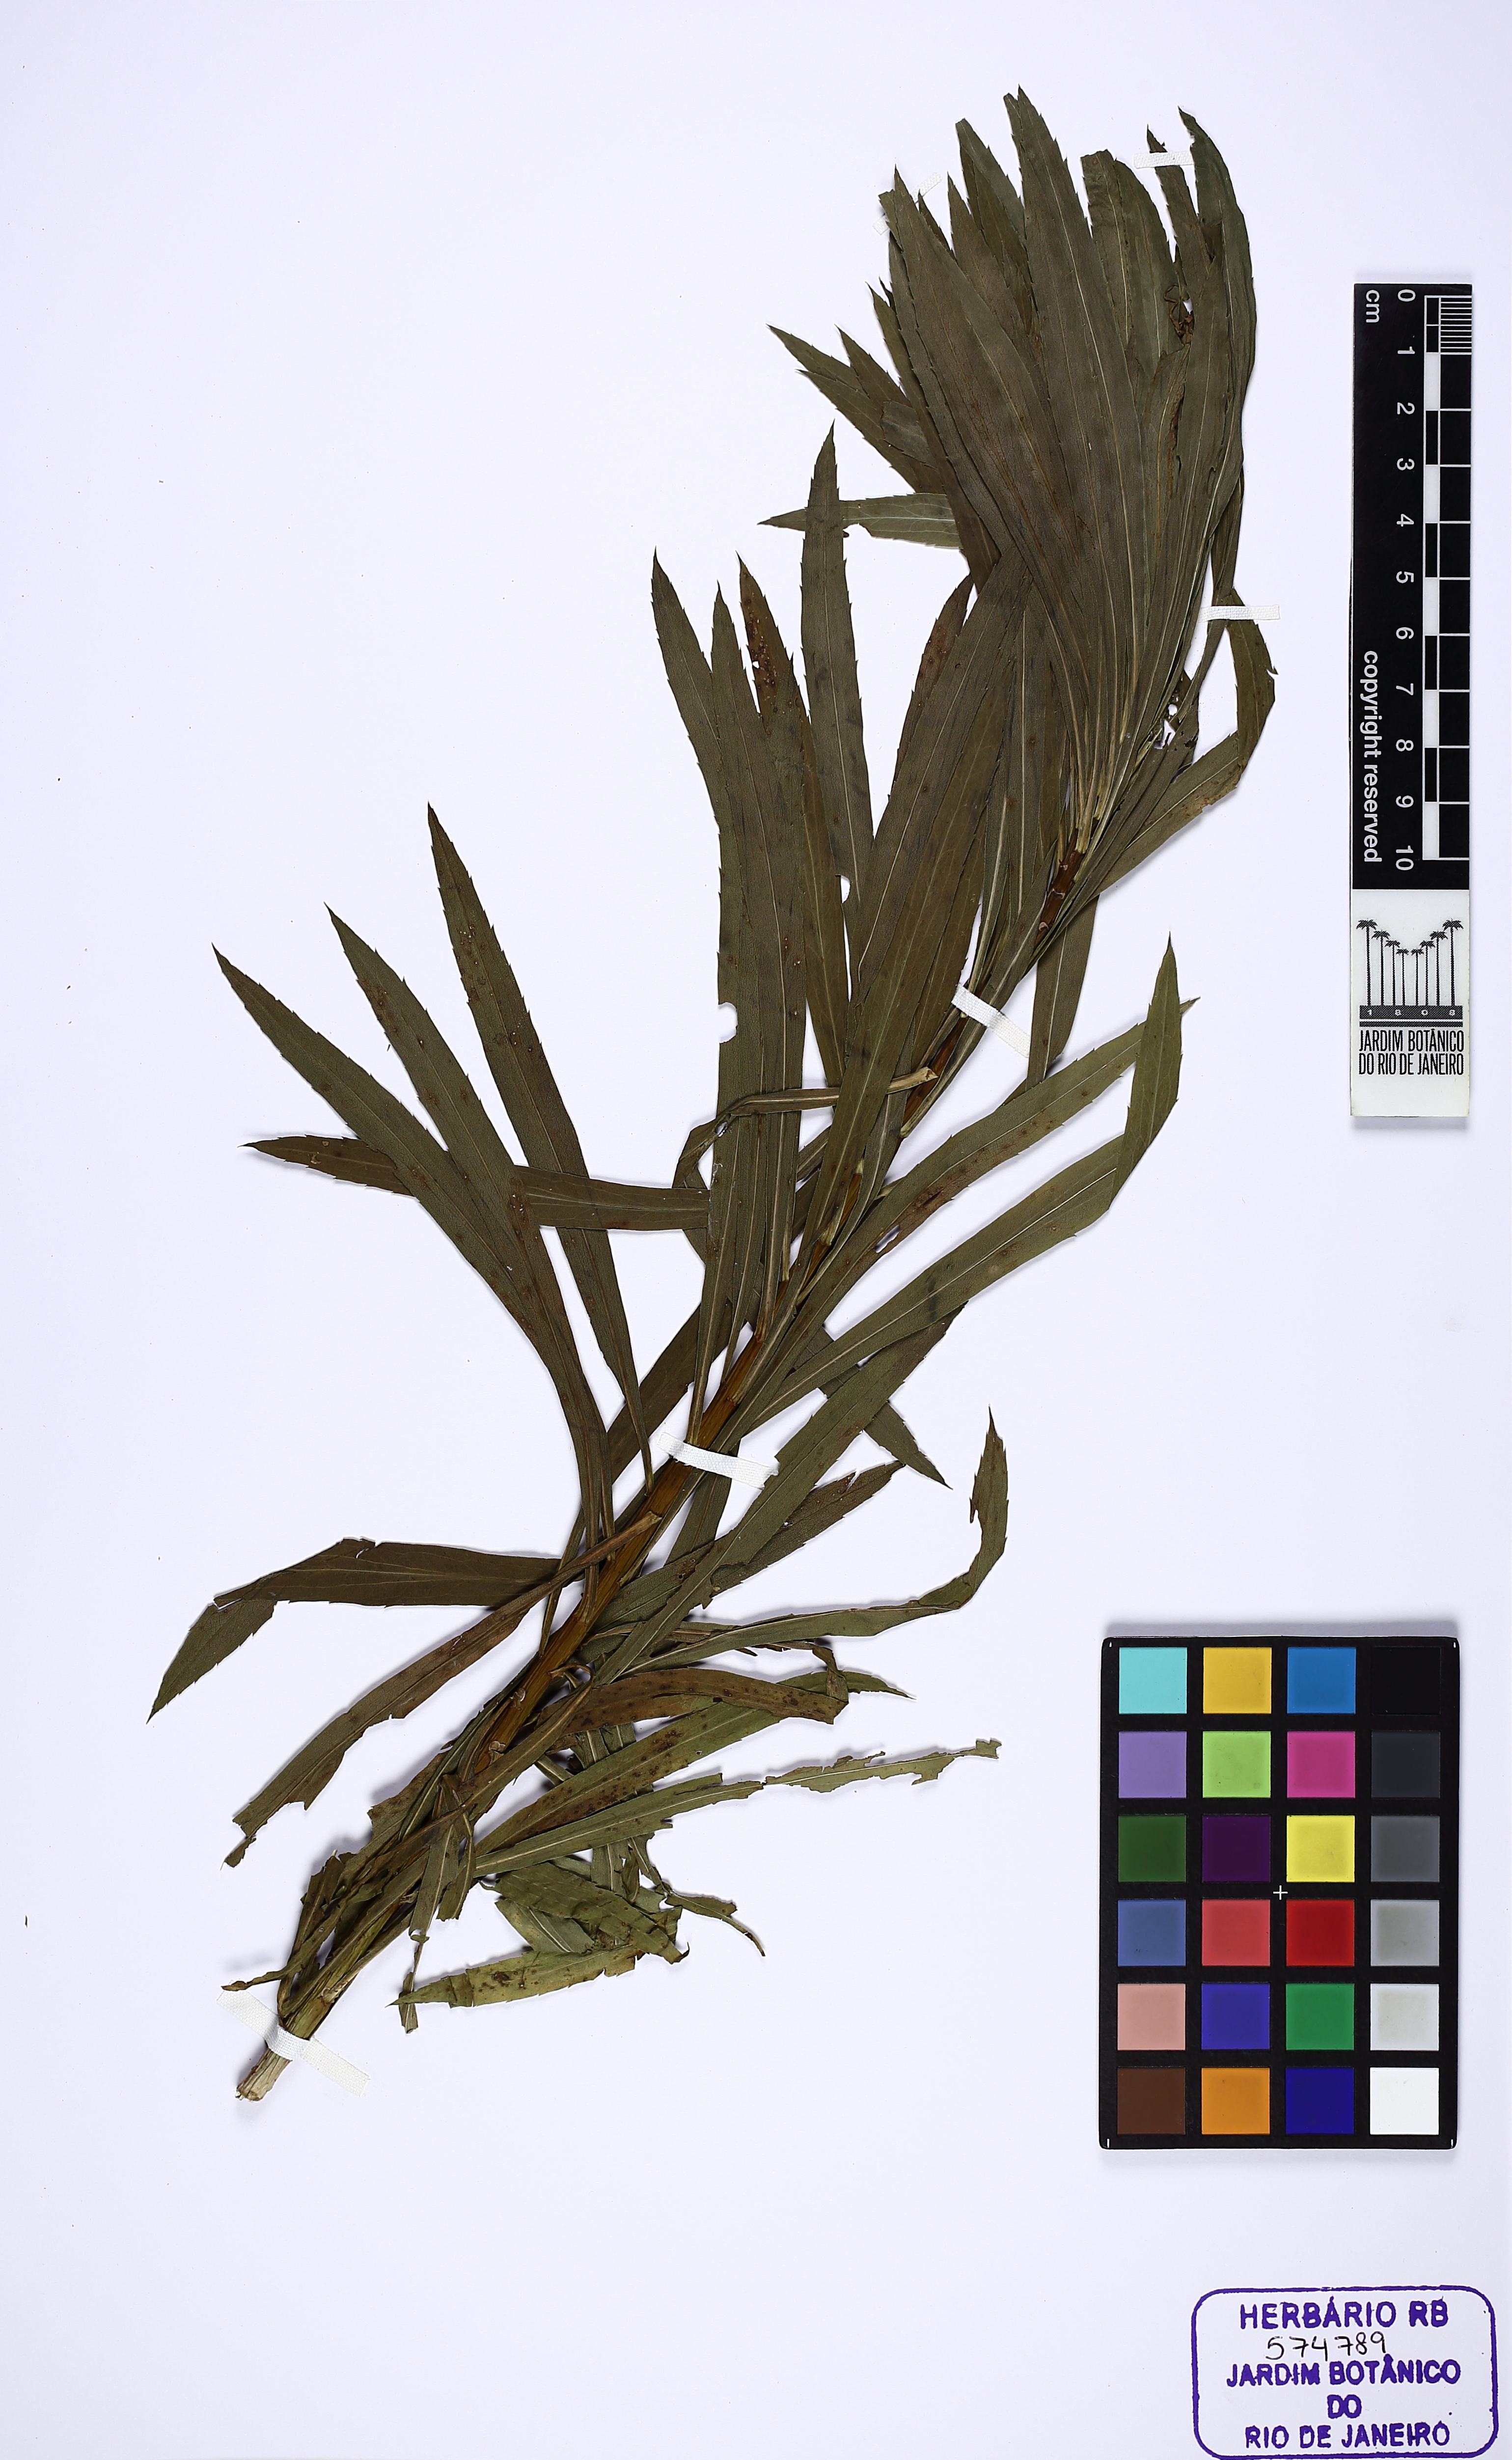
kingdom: Plantae
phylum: Tracheophyta
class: Magnoliopsida
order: Asterales
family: Asteraceae
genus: Solidago
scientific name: Solidago chilensis
